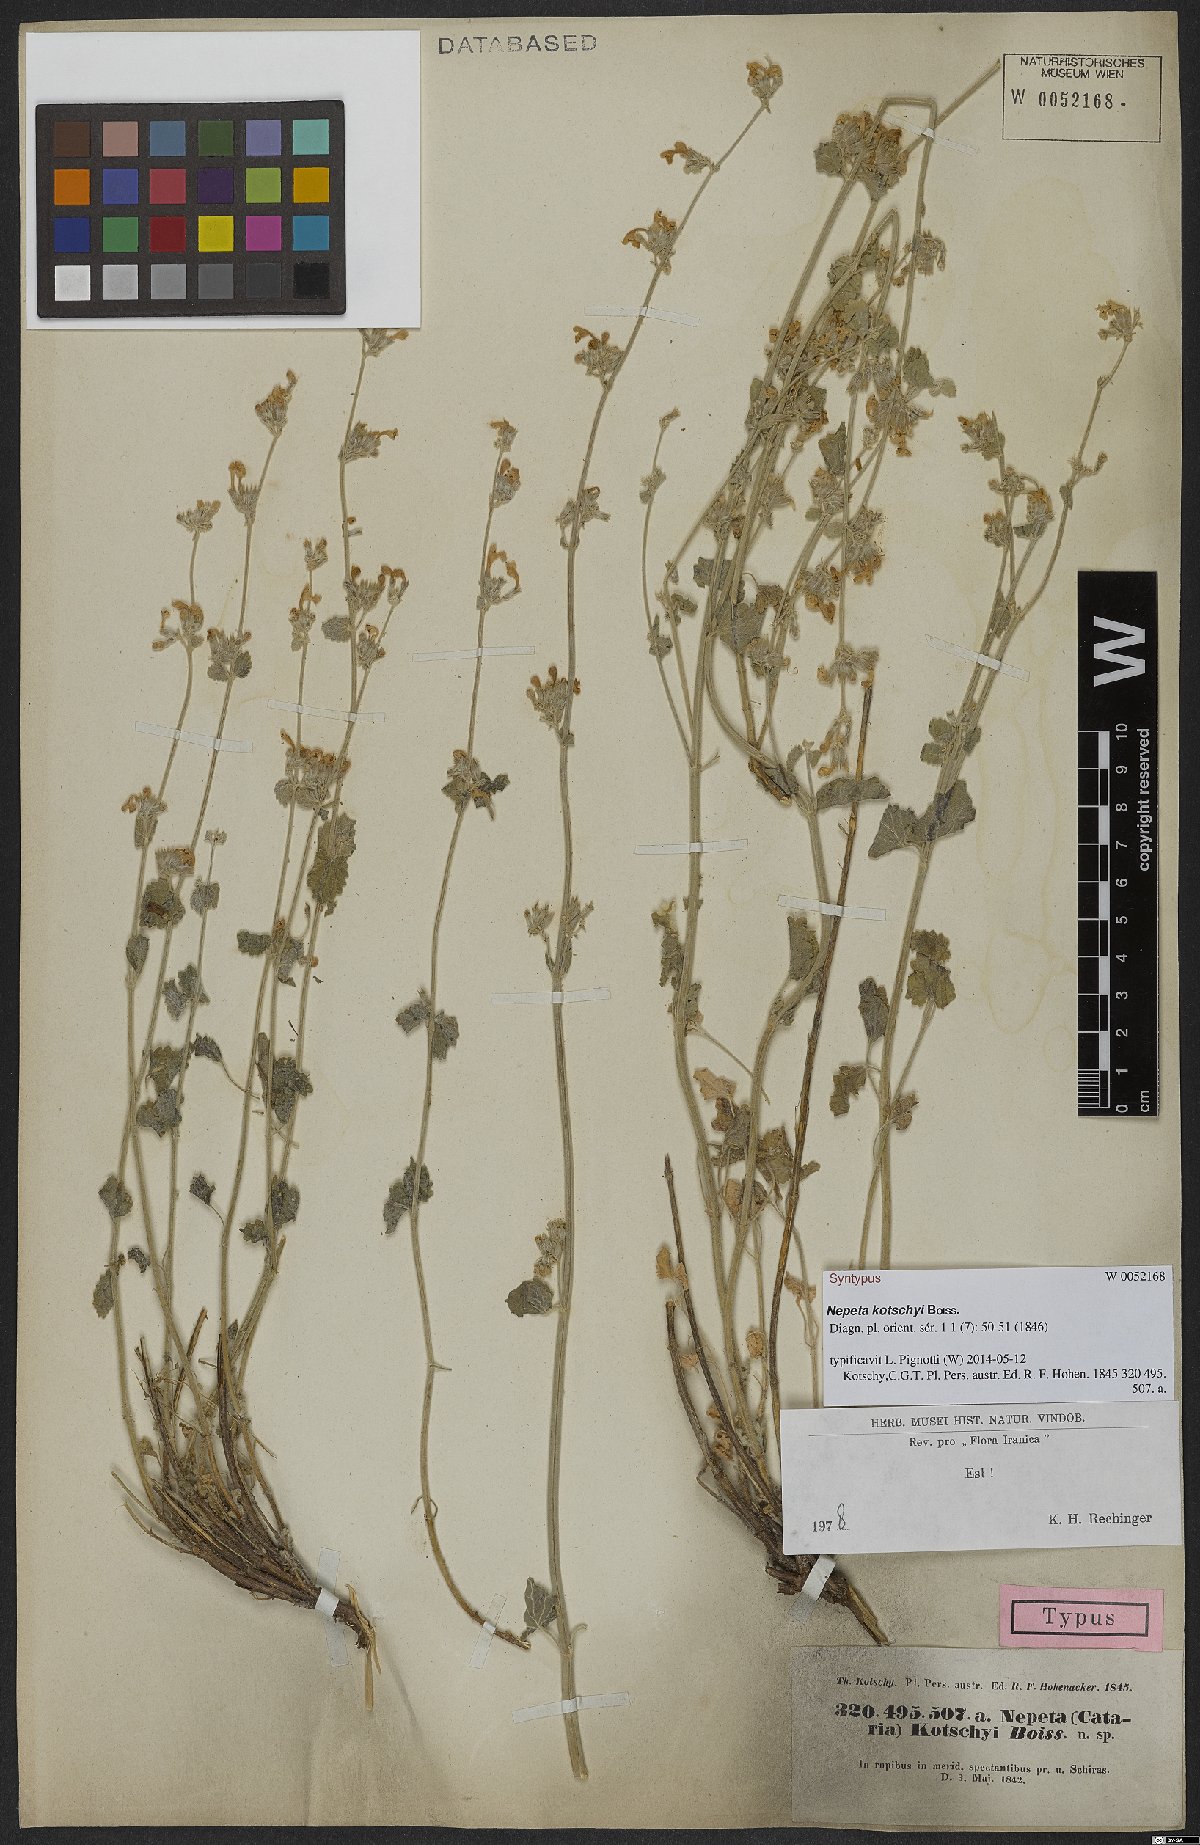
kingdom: Plantae
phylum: Tracheophyta
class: Magnoliopsida
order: Lamiales
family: Lamiaceae
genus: Nepeta
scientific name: Nepeta kotschyi
